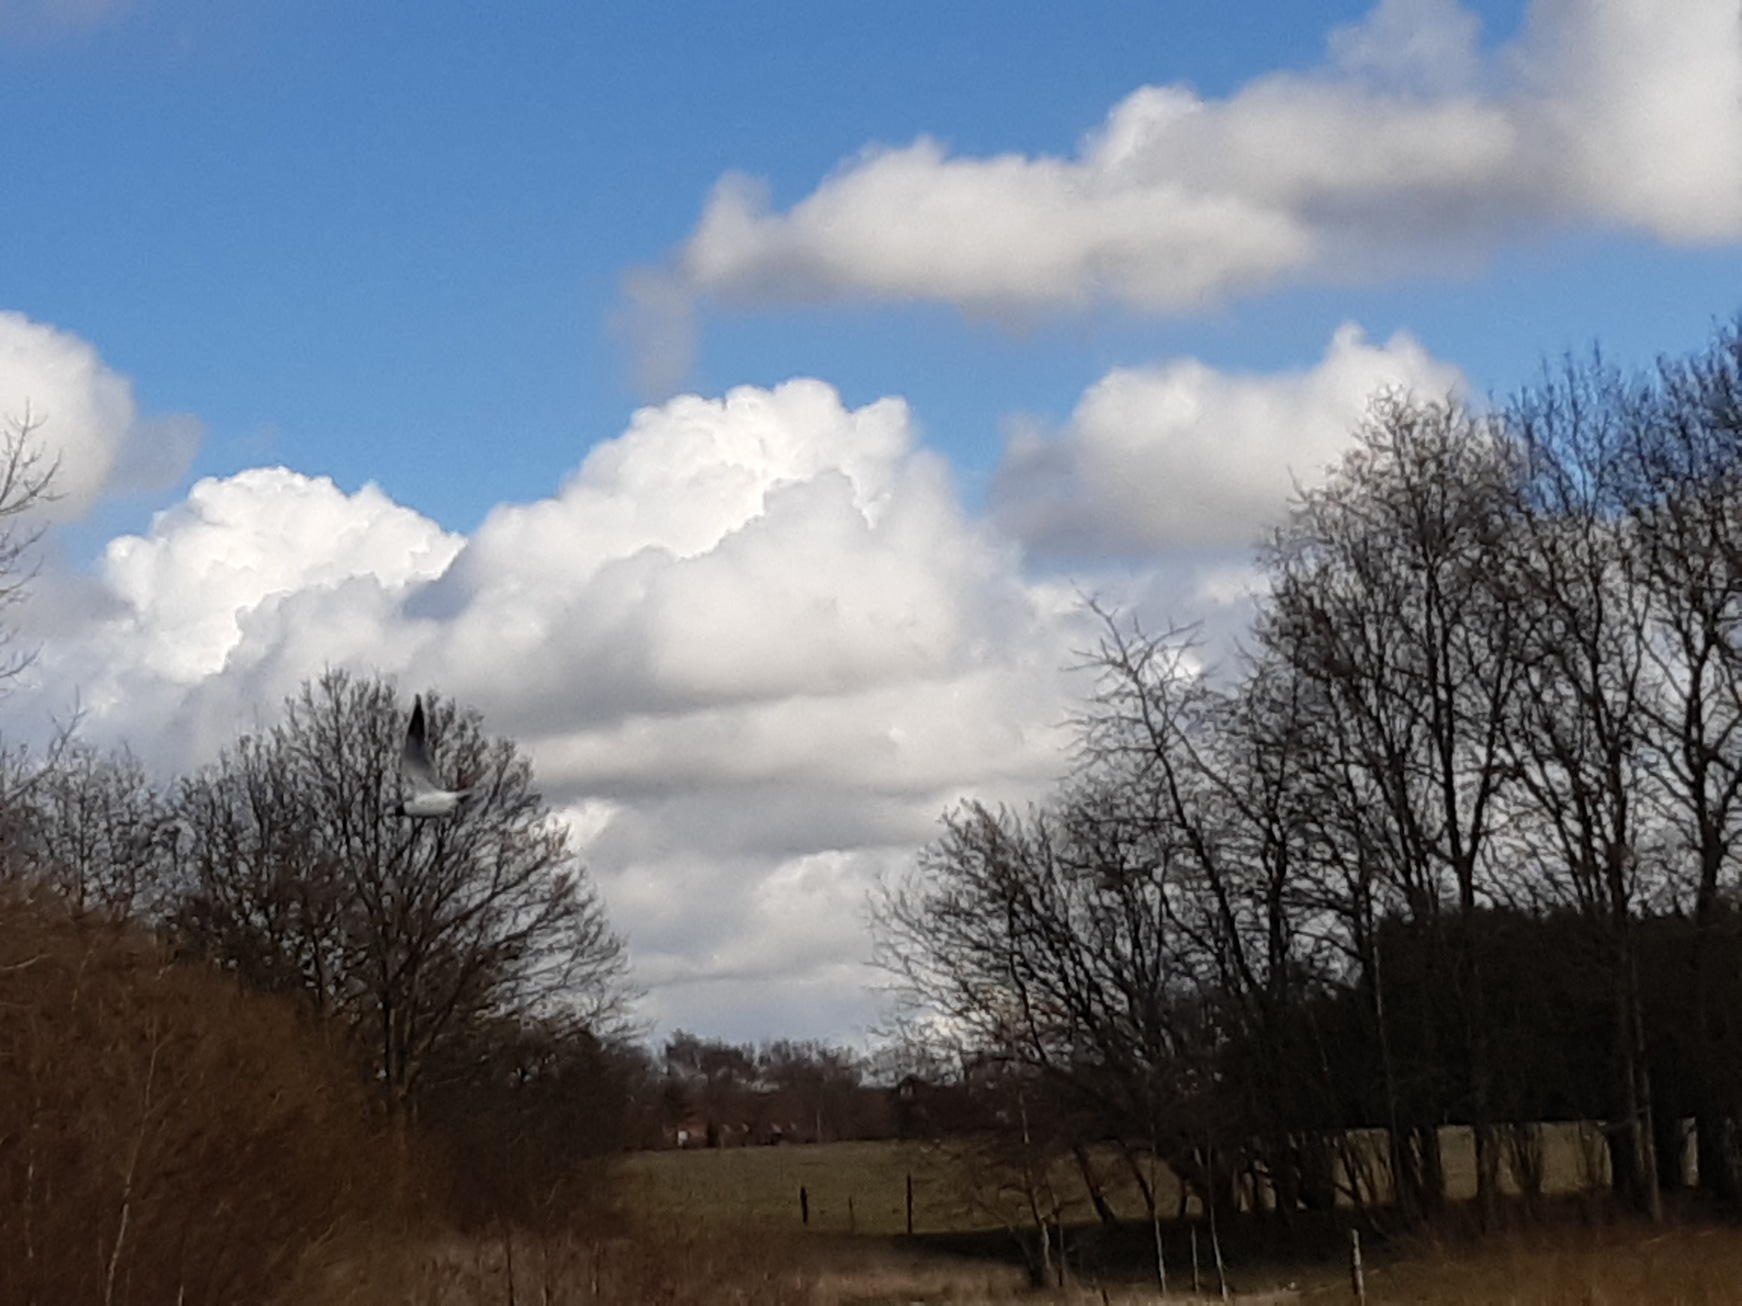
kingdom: Animalia
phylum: Chordata
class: Aves
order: Charadriiformes
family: Laridae
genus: Chroicocephalus
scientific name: Chroicocephalus ridibundus
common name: Hættemåge
